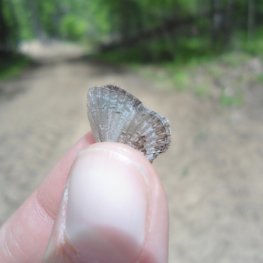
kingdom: Animalia
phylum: Arthropoda
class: Insecta
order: Lepidoptera
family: Lycaenidae
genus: Celastrina
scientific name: Celastrina lucia
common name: Northern Spring Azure
